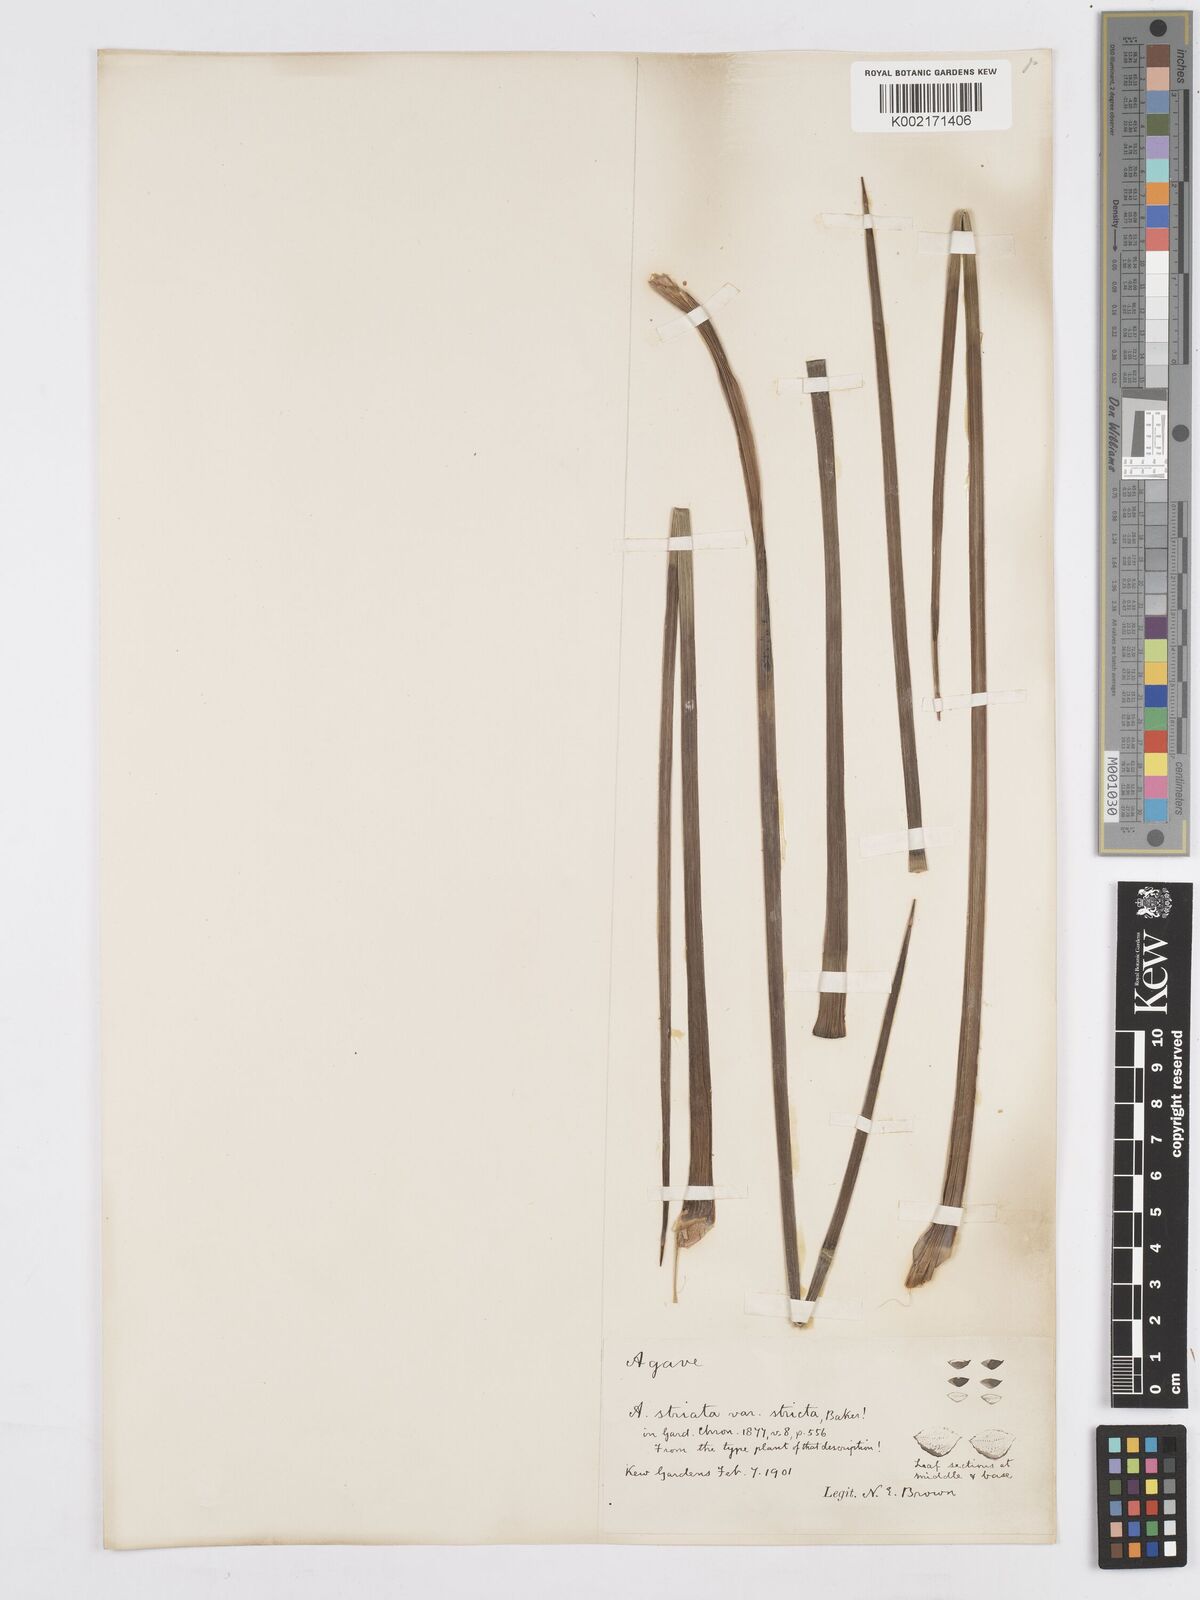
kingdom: Plantae
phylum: Tracheophyta
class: Liliopsida
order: Asparagales
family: Asparagaceae
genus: Agave
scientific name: Agave striata
